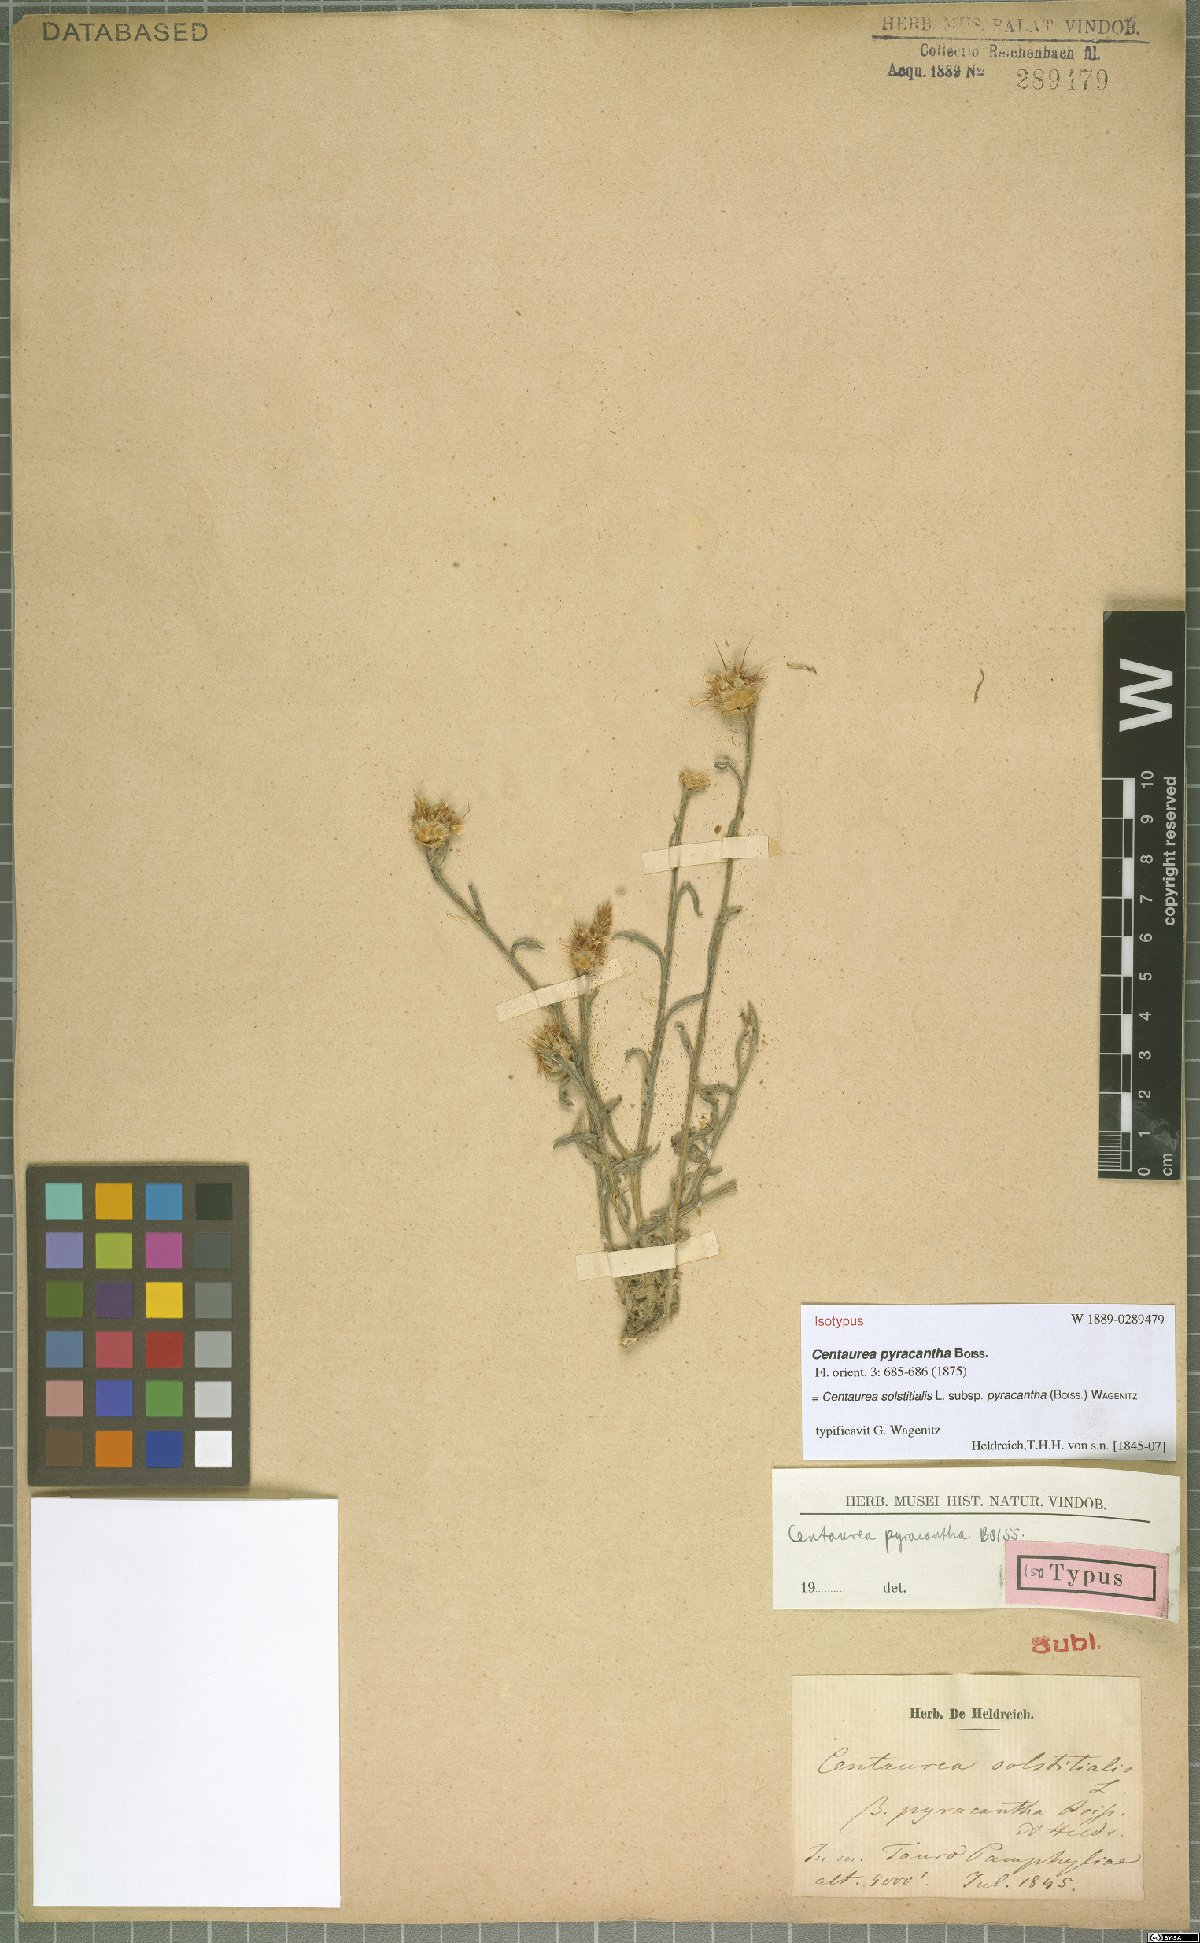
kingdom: Plantae
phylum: Tracheophyta
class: Magnoliopsida
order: Asterales
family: Asteraceae
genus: Centaurea
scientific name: Centaurea solstitialis
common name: Yellow star-thistle
